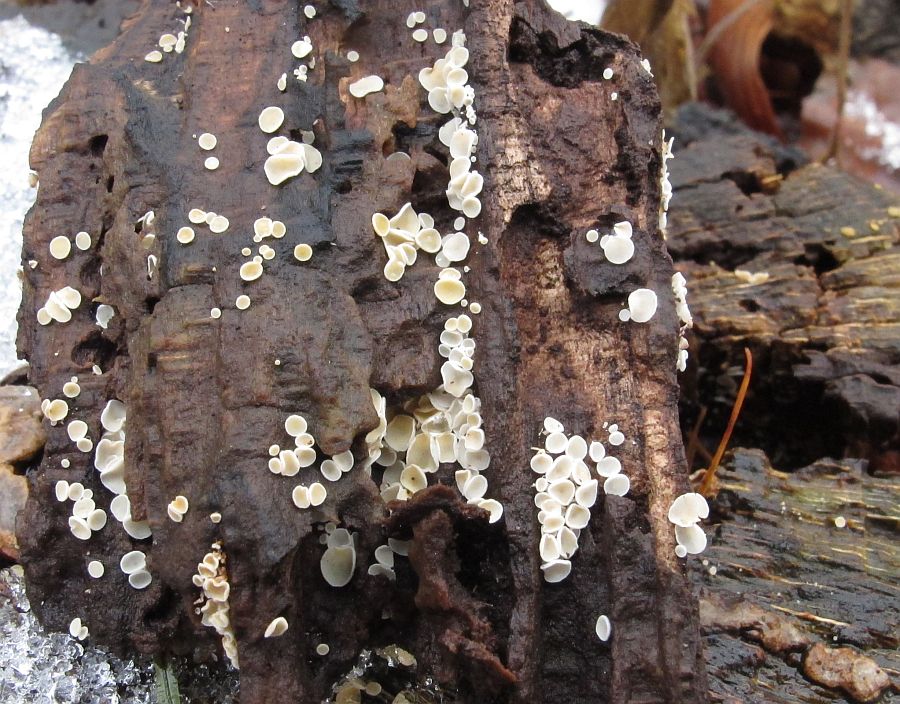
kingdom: Fungi
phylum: Ascomycota
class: Leotiomycetes
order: Helotiales
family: Lachnaceae
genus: Lachnum
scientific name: Lachnum impudicum
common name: vinter-frynseskive
